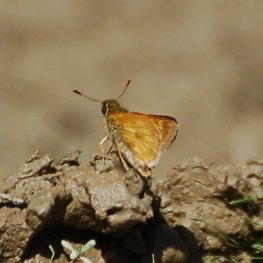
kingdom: Animalia
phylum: Arthropoda
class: Insecta
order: Lepidoptera
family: Hesperiidae
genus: Polites
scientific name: Polites
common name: Long Dash Skipper
